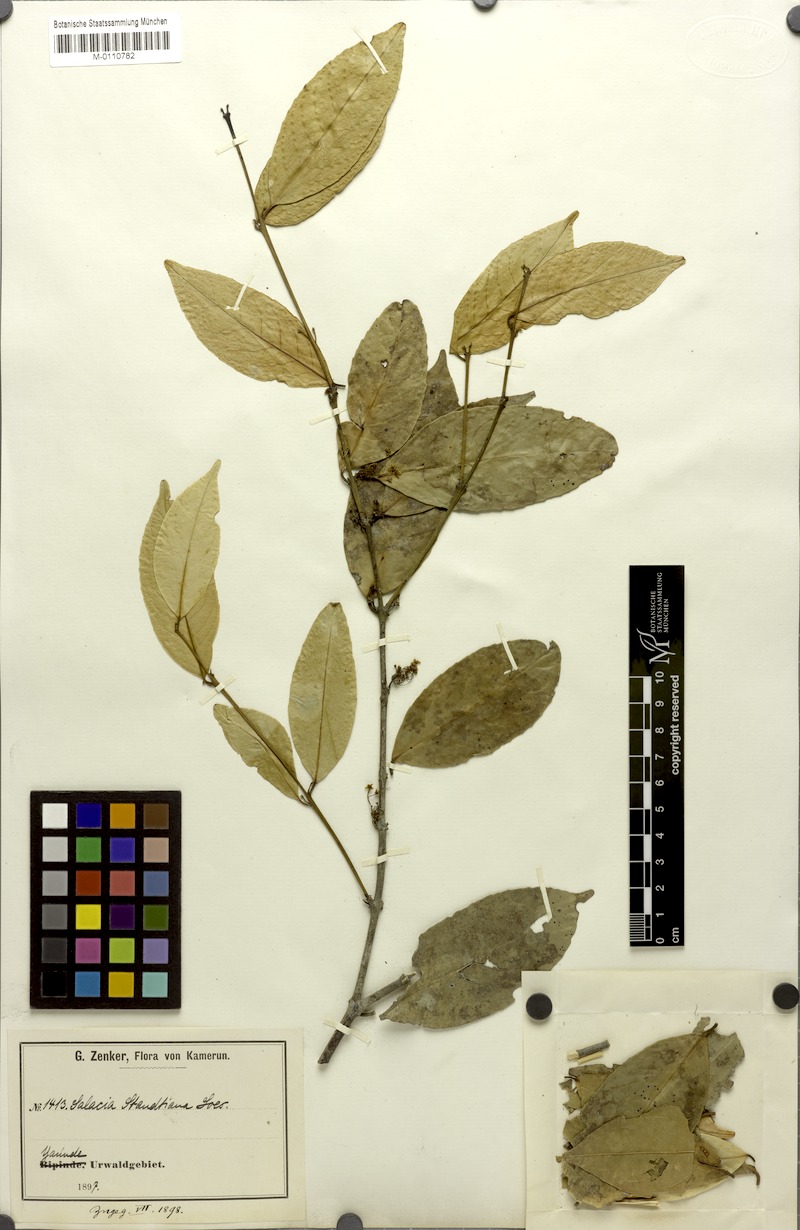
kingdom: Plantae
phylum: Tracheophyta
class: Magnoliopsida
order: Celastrales
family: Celastraceae
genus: Salacia
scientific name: Salacia staudtiana
